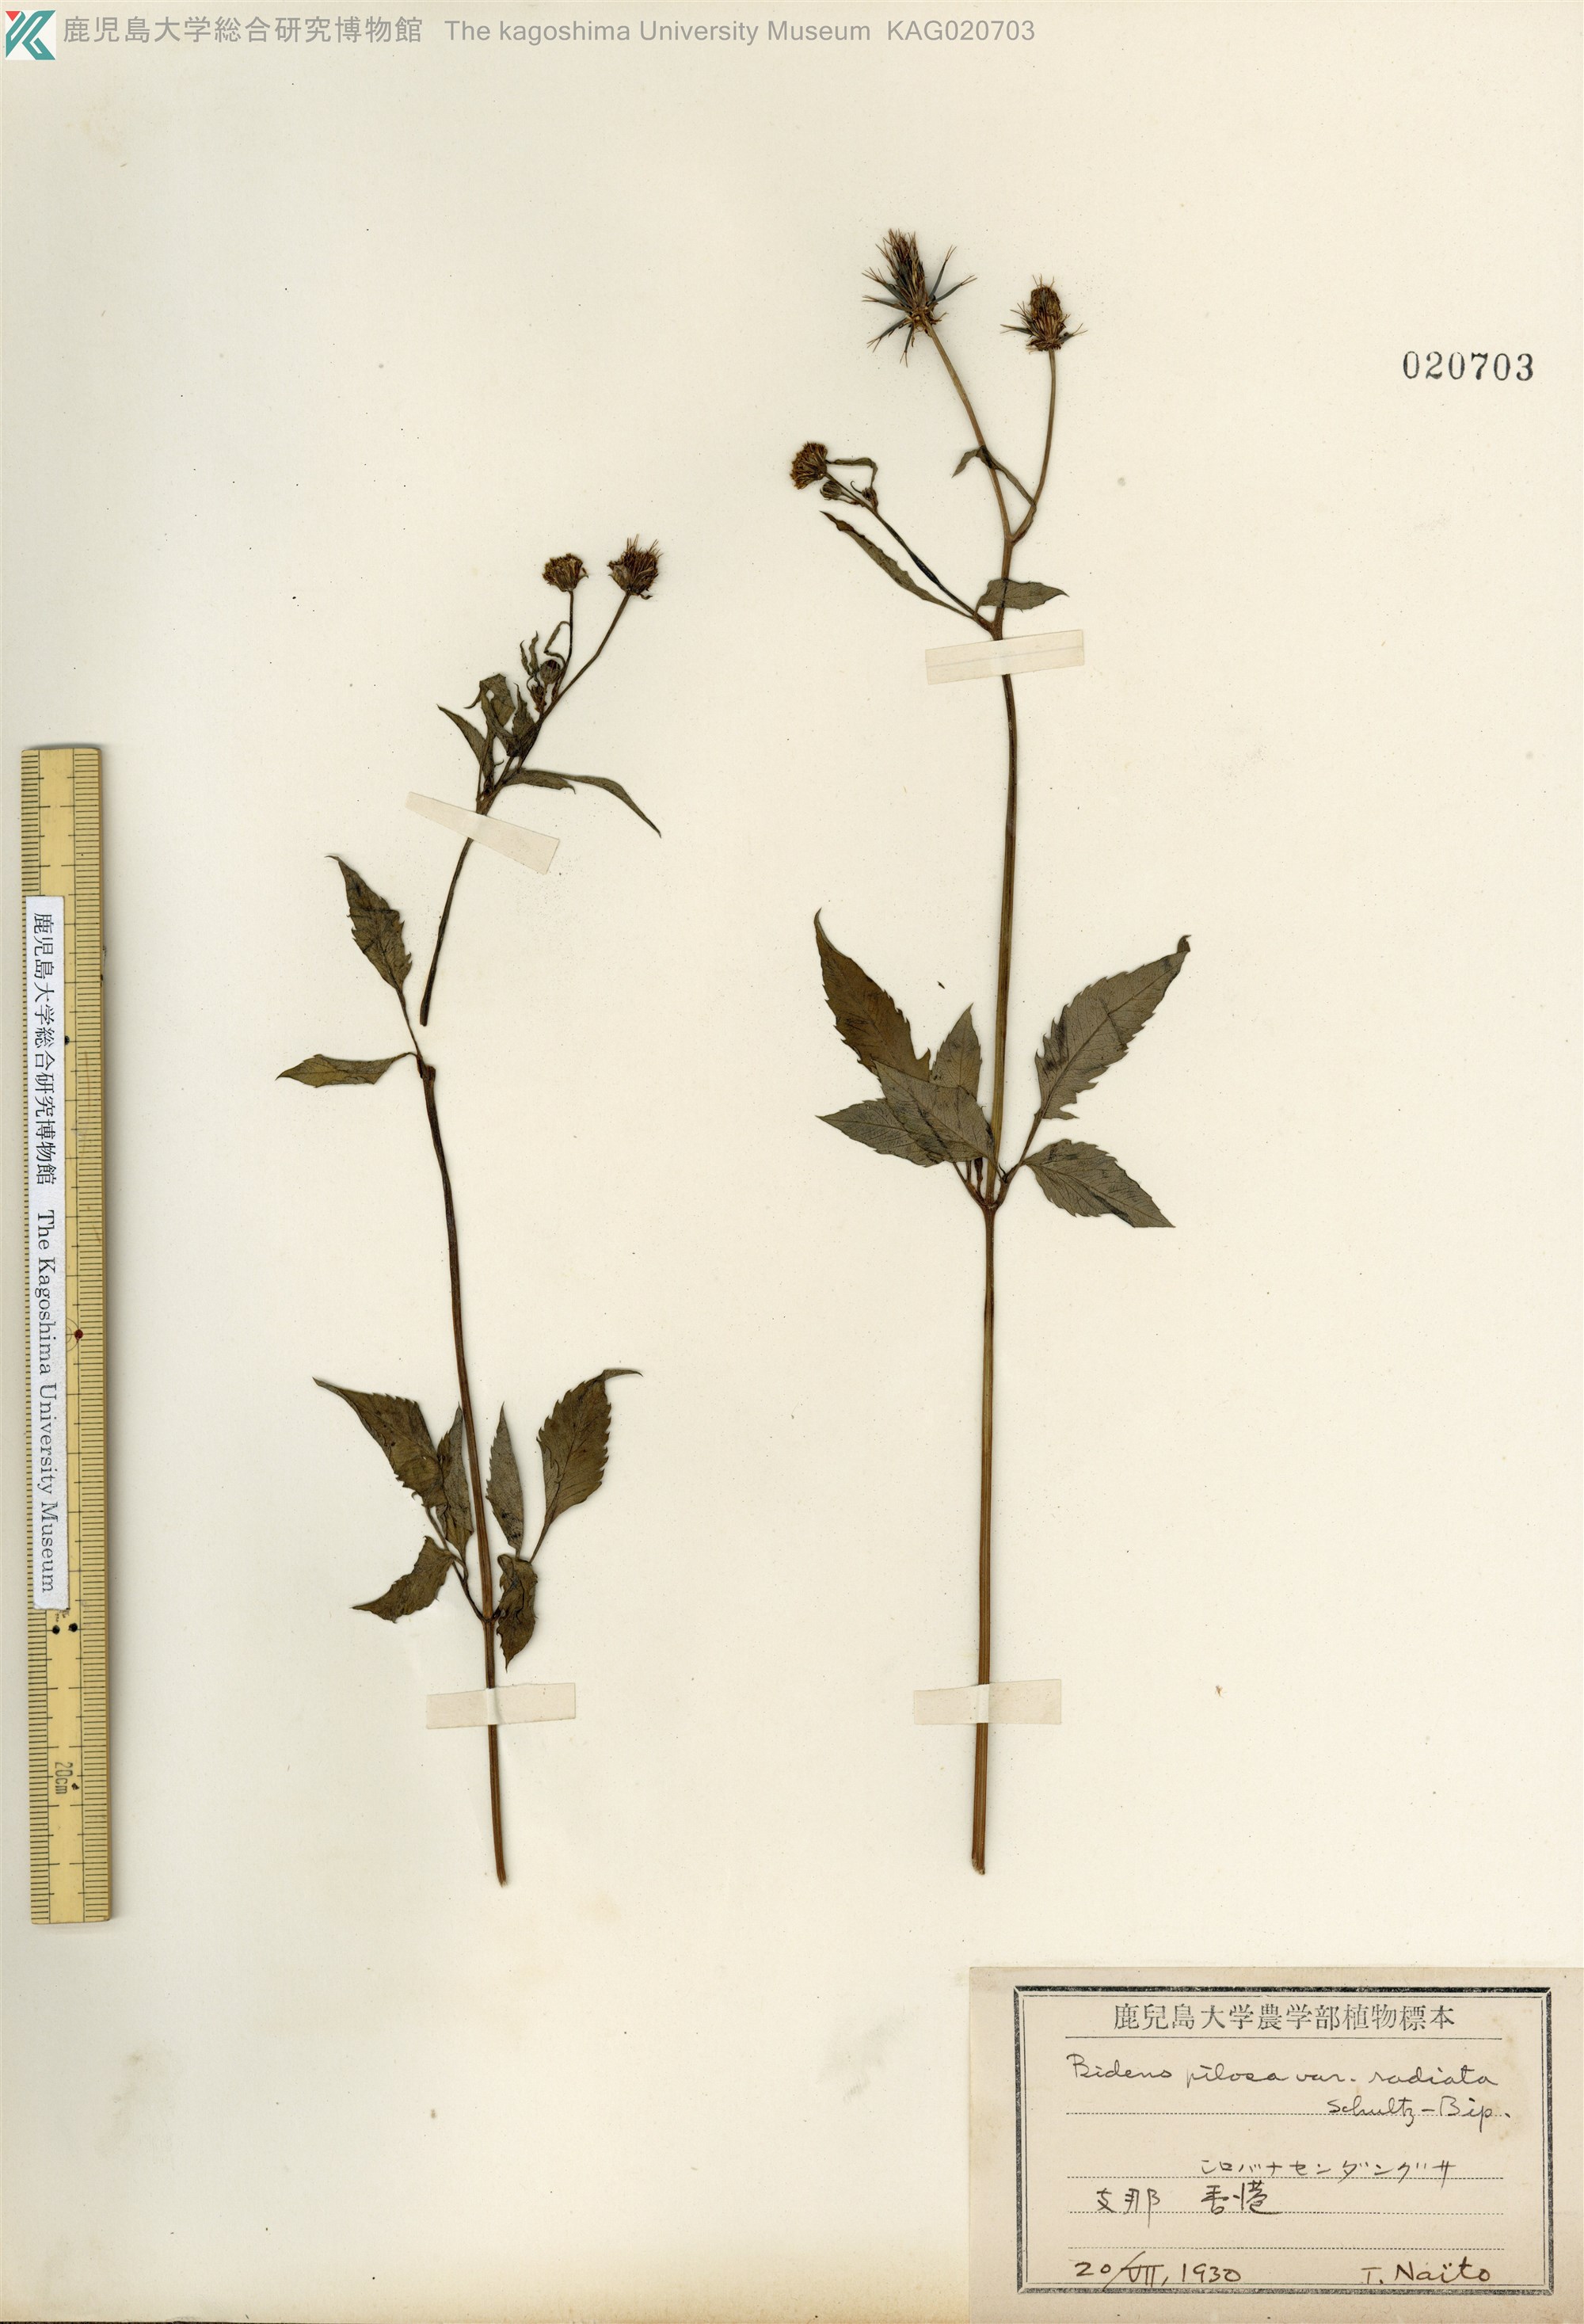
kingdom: Plantae
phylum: Tracheophyta
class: Magnoliopsida
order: Asterales
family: Asteraceae
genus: Bidens
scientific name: Bidens pilosa
